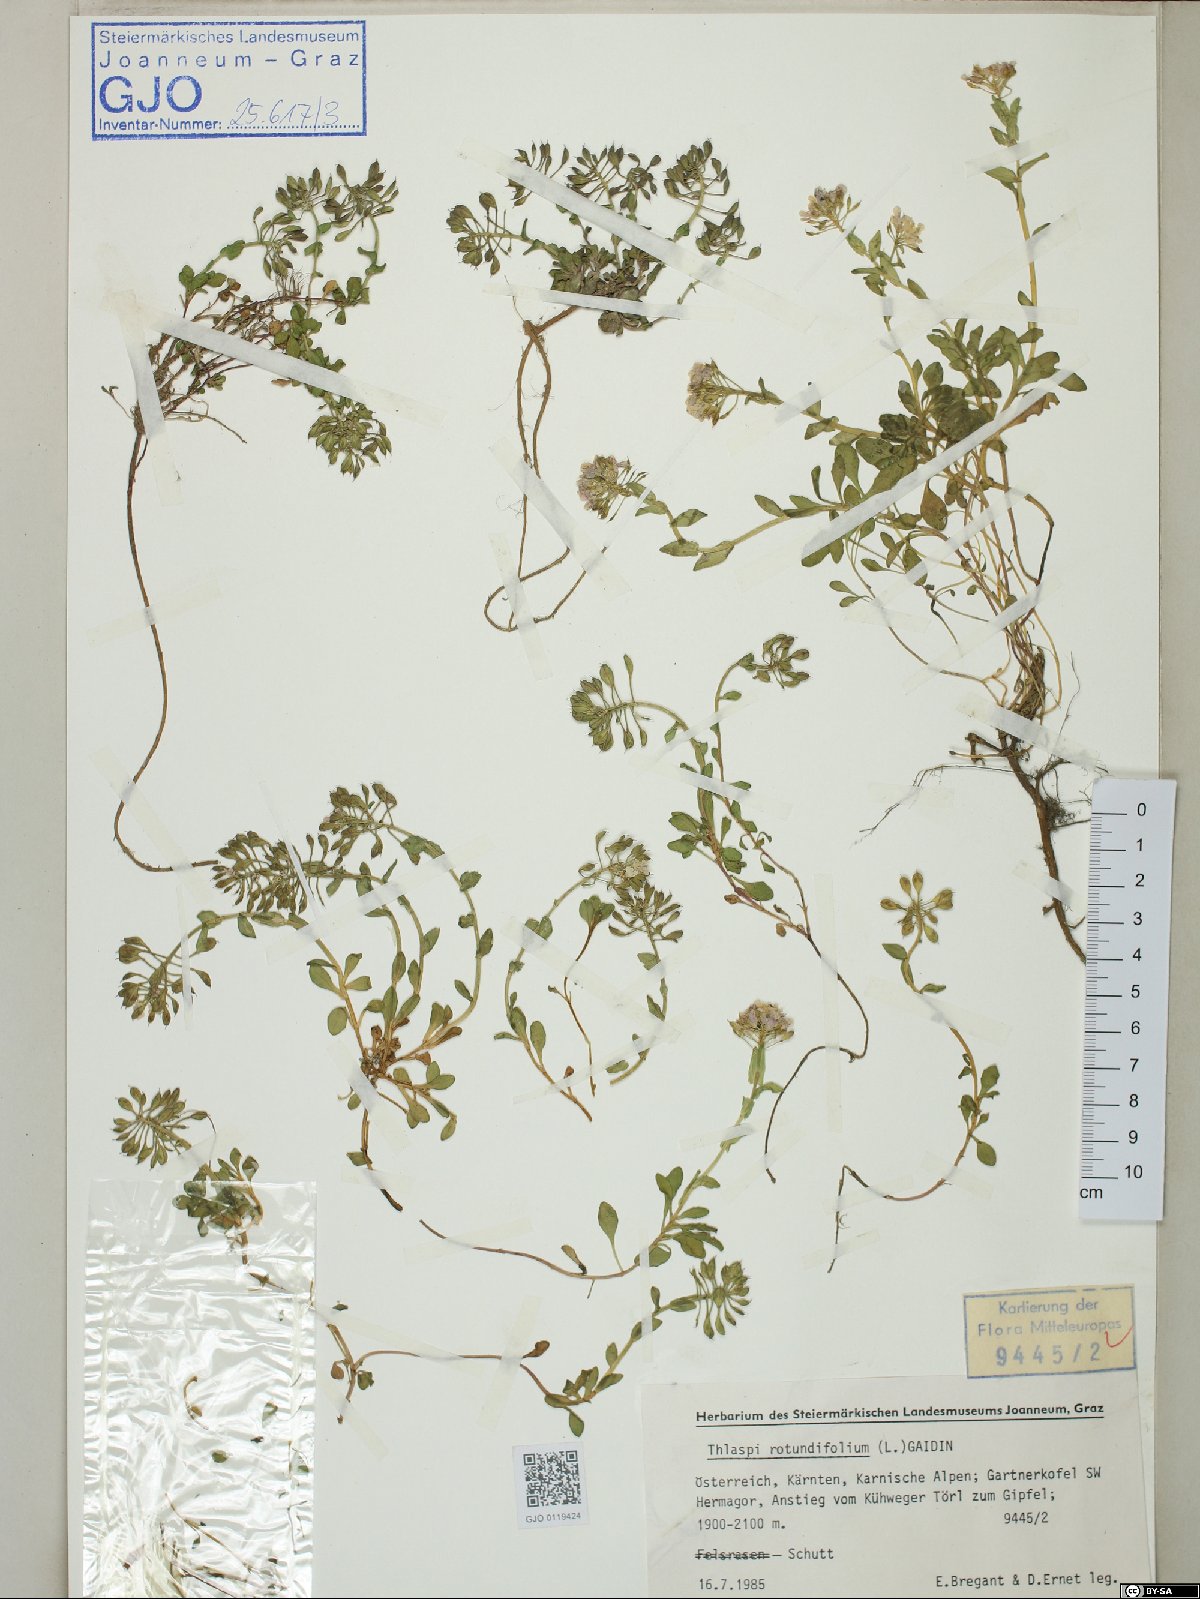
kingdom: Plantae
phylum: Tracheophyta
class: Magnoliopsida
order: Brassicales
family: Brassicaceae
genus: Noccaea
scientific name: Noccaea rotundifolia
